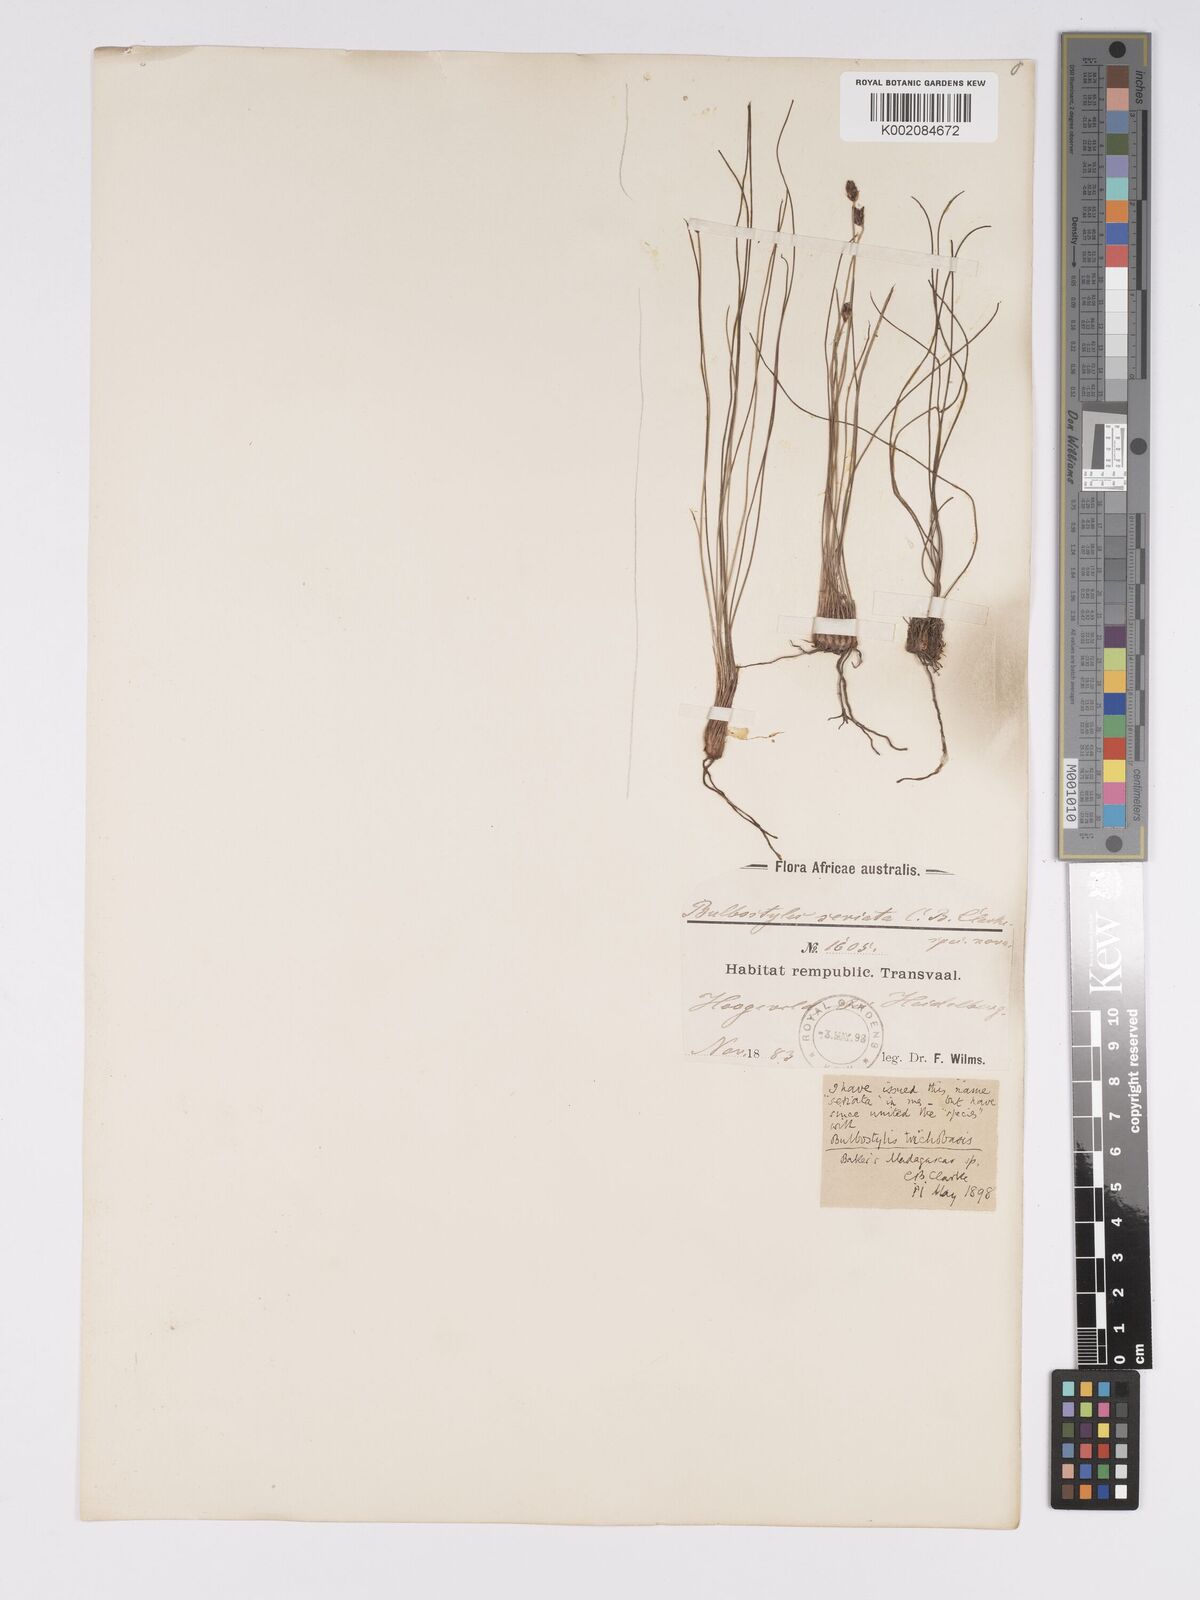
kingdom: Plantae
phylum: Tracheophyta
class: Liliopsida
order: Poales
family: Cyperaceae
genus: Bulbostylis
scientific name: Bulbostylis oritrephes
